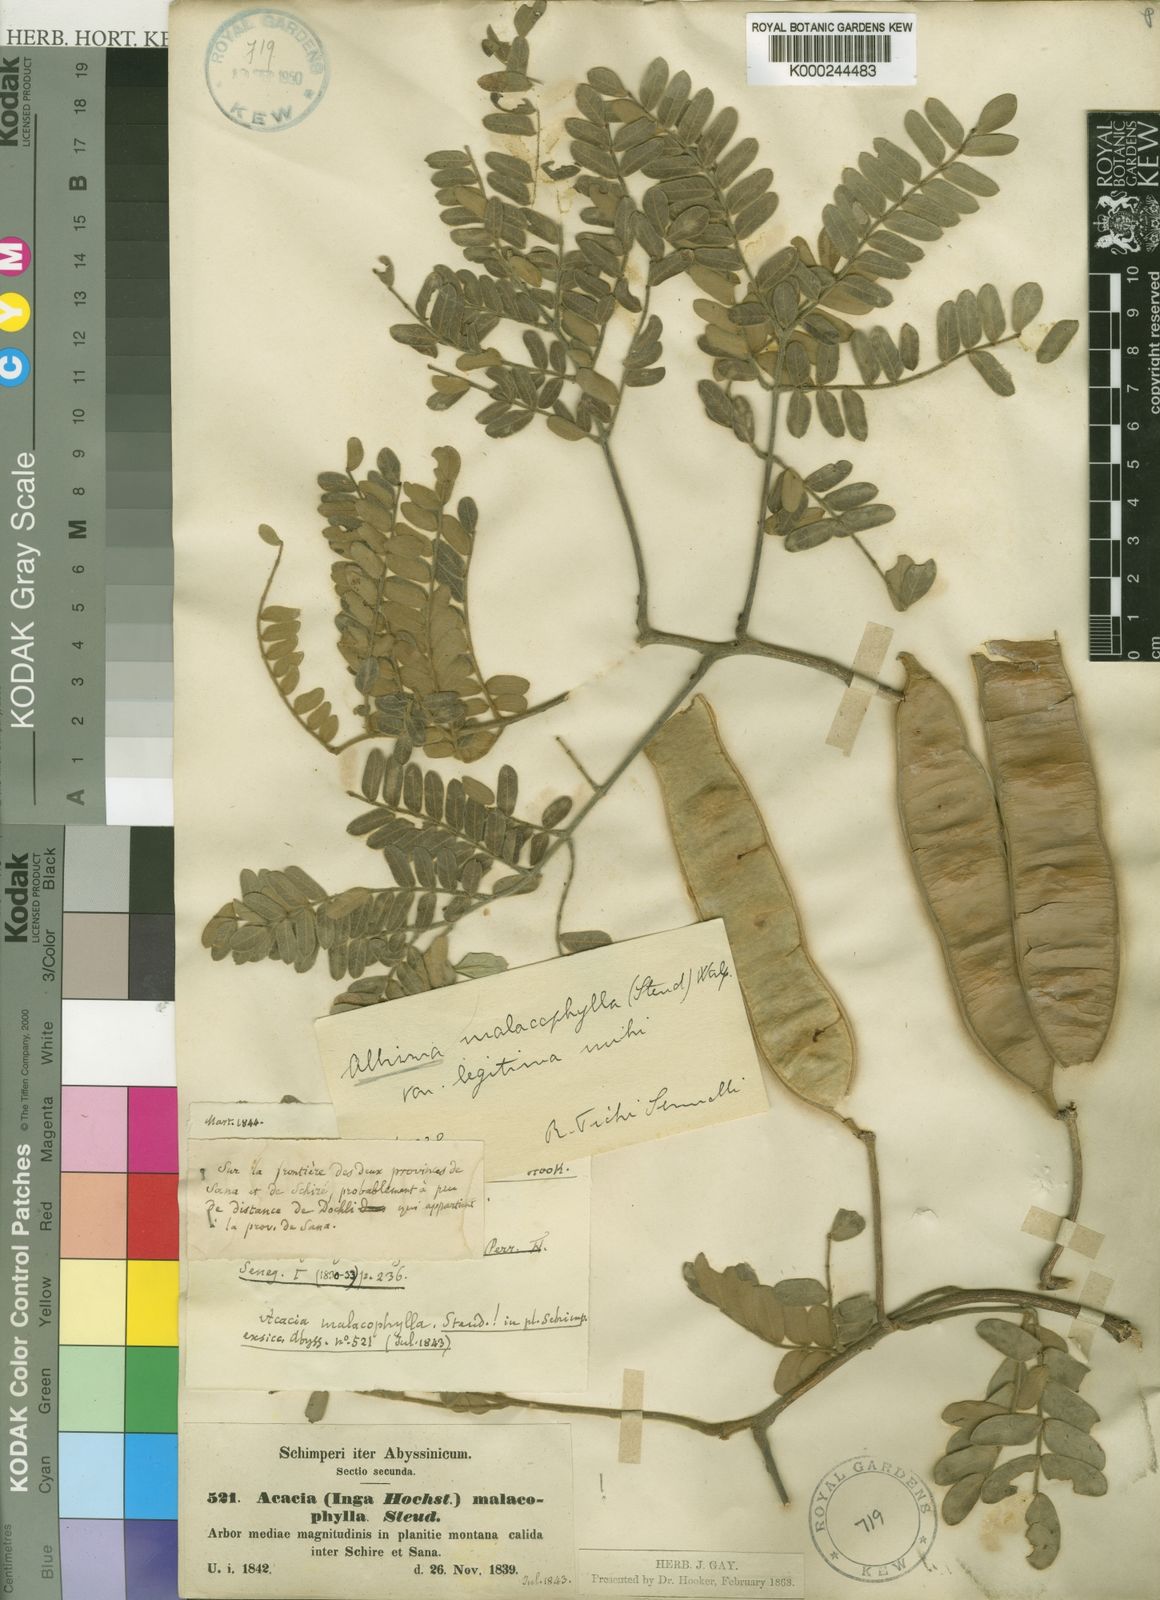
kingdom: Plantae
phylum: Tracheophyta
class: Magnoliopsida
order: Fabales
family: Fabaceae
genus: Albizia
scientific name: Albizia malacophylla
